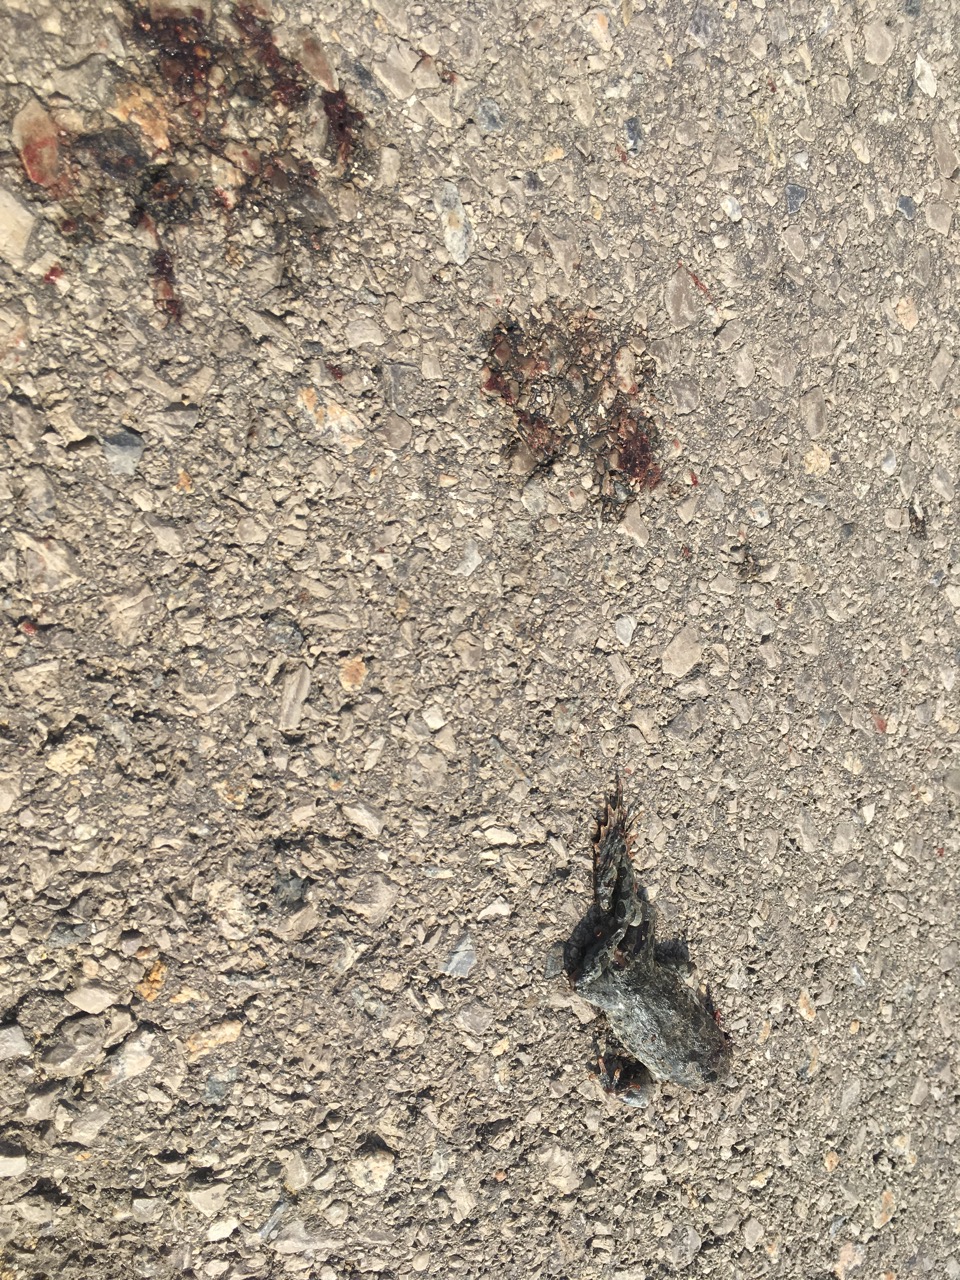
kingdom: Animalia
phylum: Chordata
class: Amphibia
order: Anura
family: Bufonidae
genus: Bufotes
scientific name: Bufotes viridis
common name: European green toad
